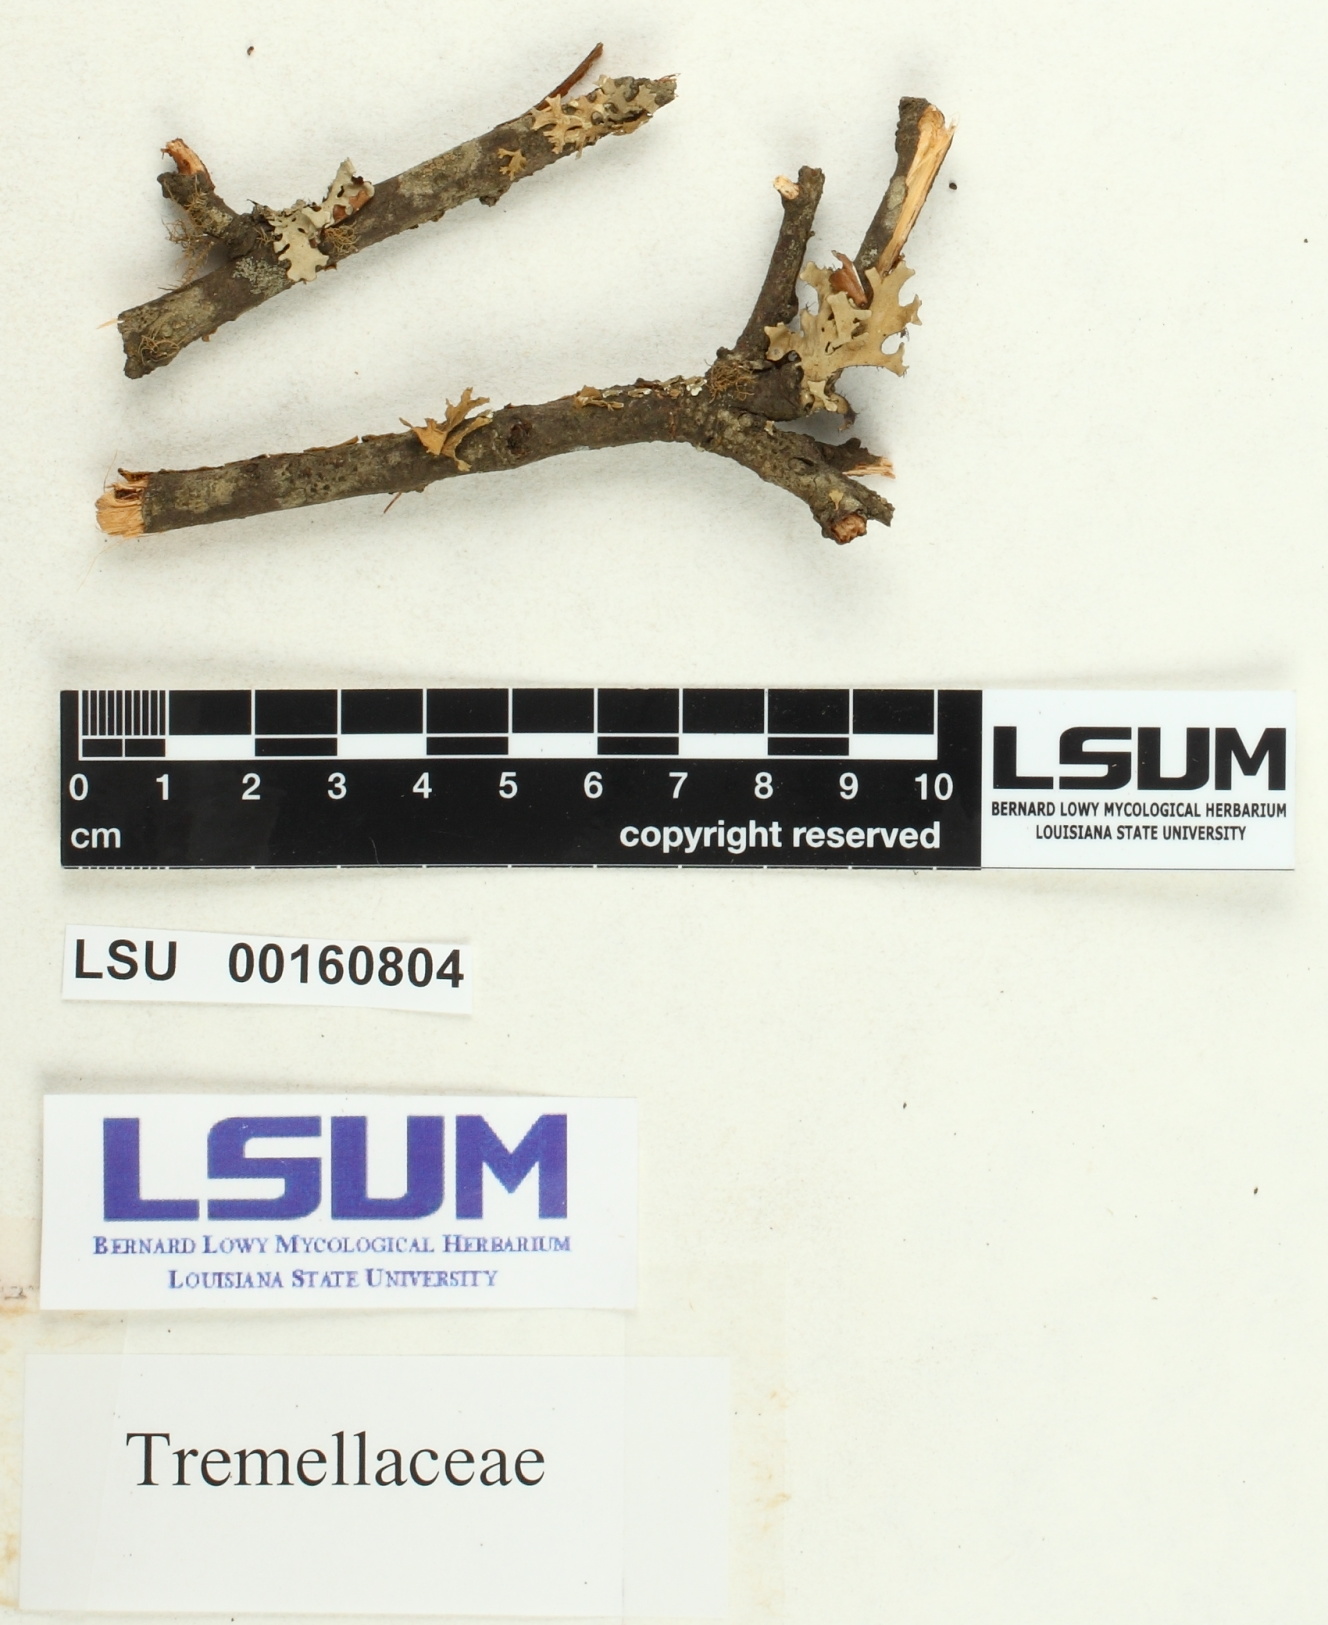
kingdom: Fungi
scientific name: Fungi
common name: Fungi
